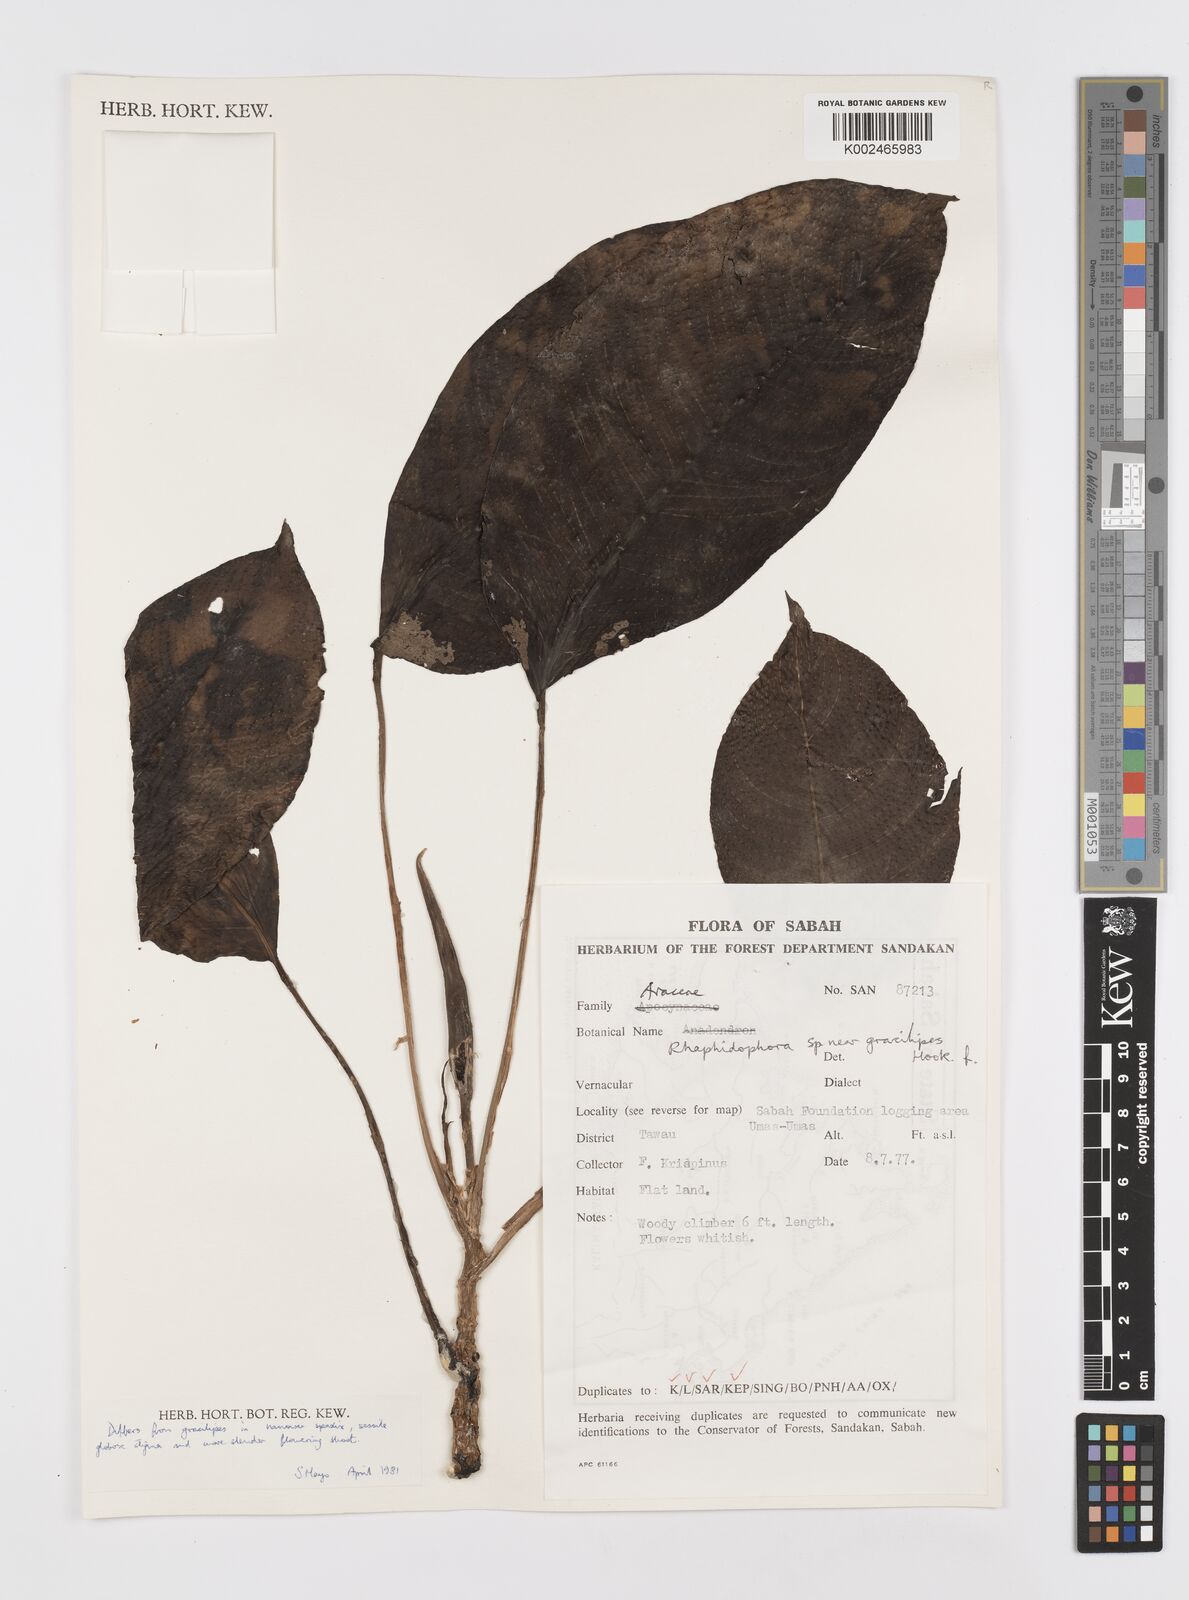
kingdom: Plantae
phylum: Tracheophyta
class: Liliopsida
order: Alismatales
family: Araceae
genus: Rhaphidophora
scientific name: Rhaphidophora puberula
